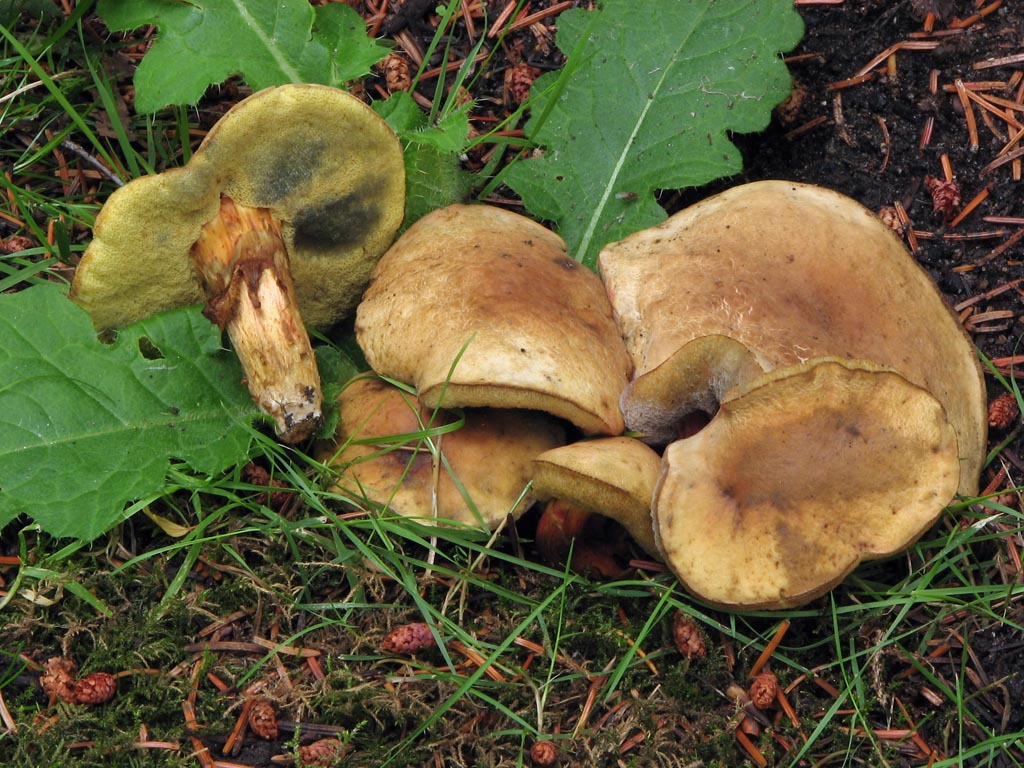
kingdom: Fungi
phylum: Basidiomycota
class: Agaricomycetes
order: Boletales
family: Boletaceae
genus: Hortiboletus
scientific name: Hortiboletus bubalinus
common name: aurora-rørhat
